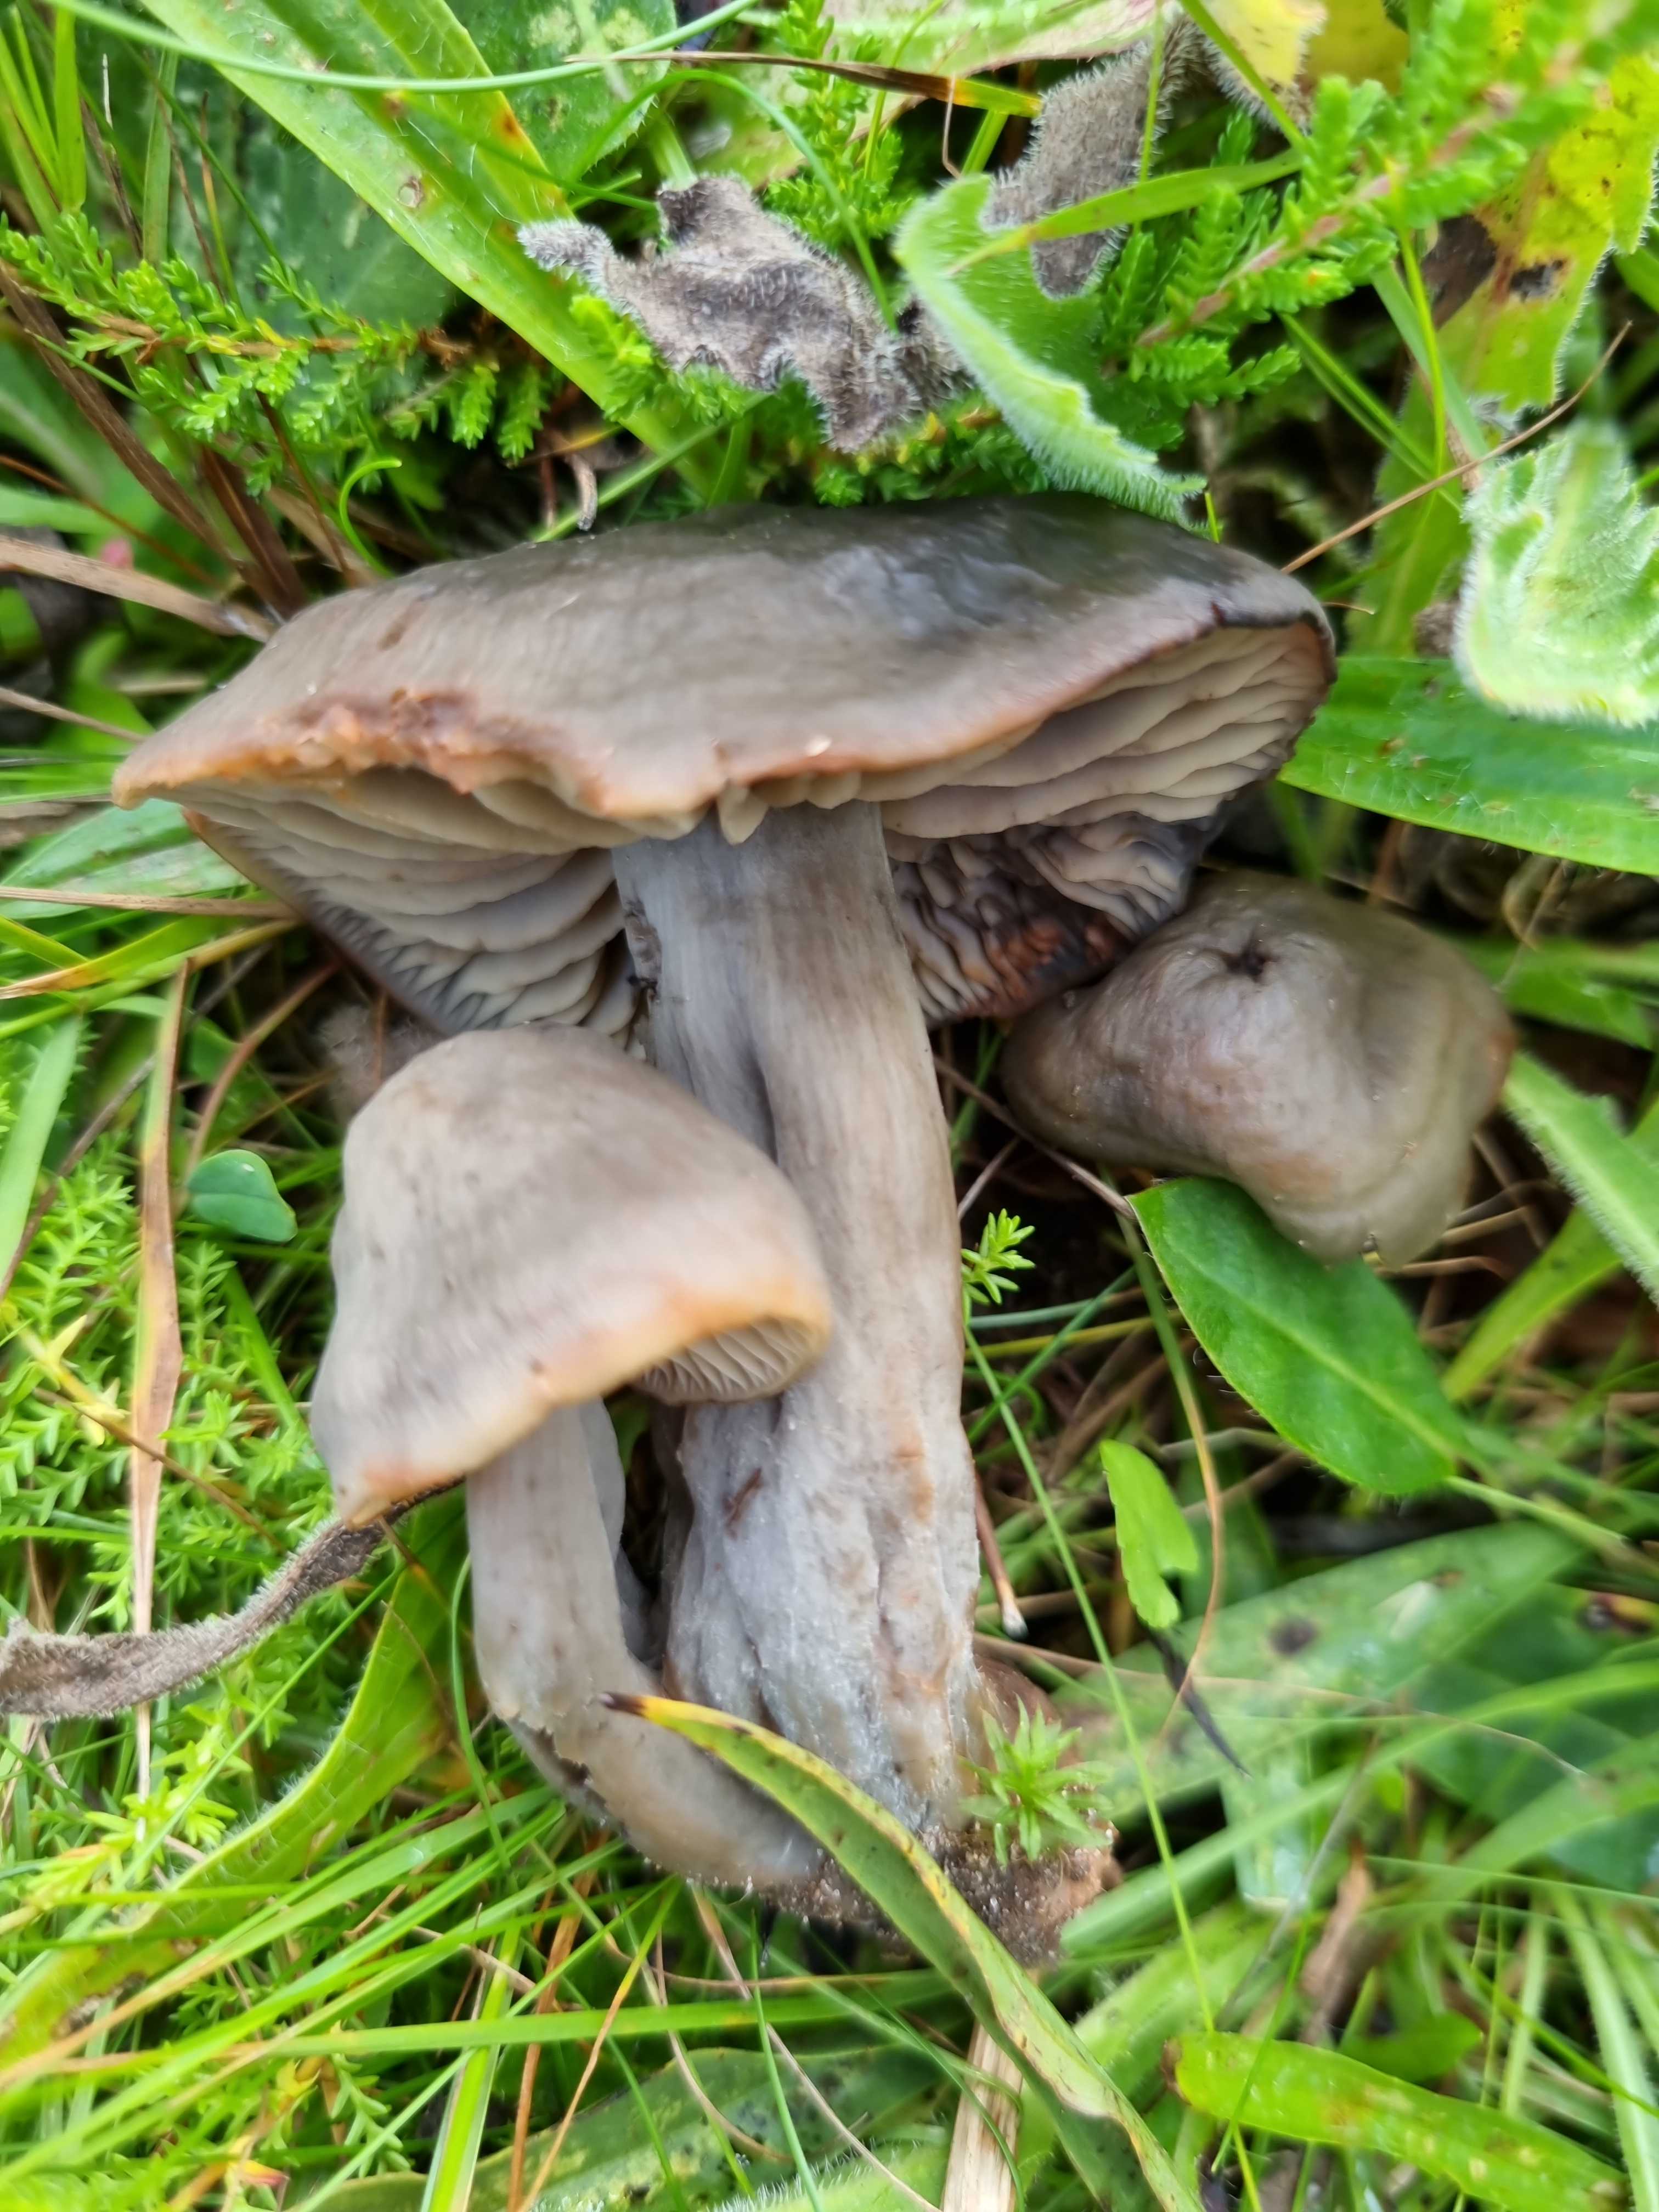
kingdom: Fungi
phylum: Basidiomycota
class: Agaricomycetes
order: Agaricales
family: Hygrophoraceae
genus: Neohygrocybe
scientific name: Neohygrocybe ovina
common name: rødmende vokshat
